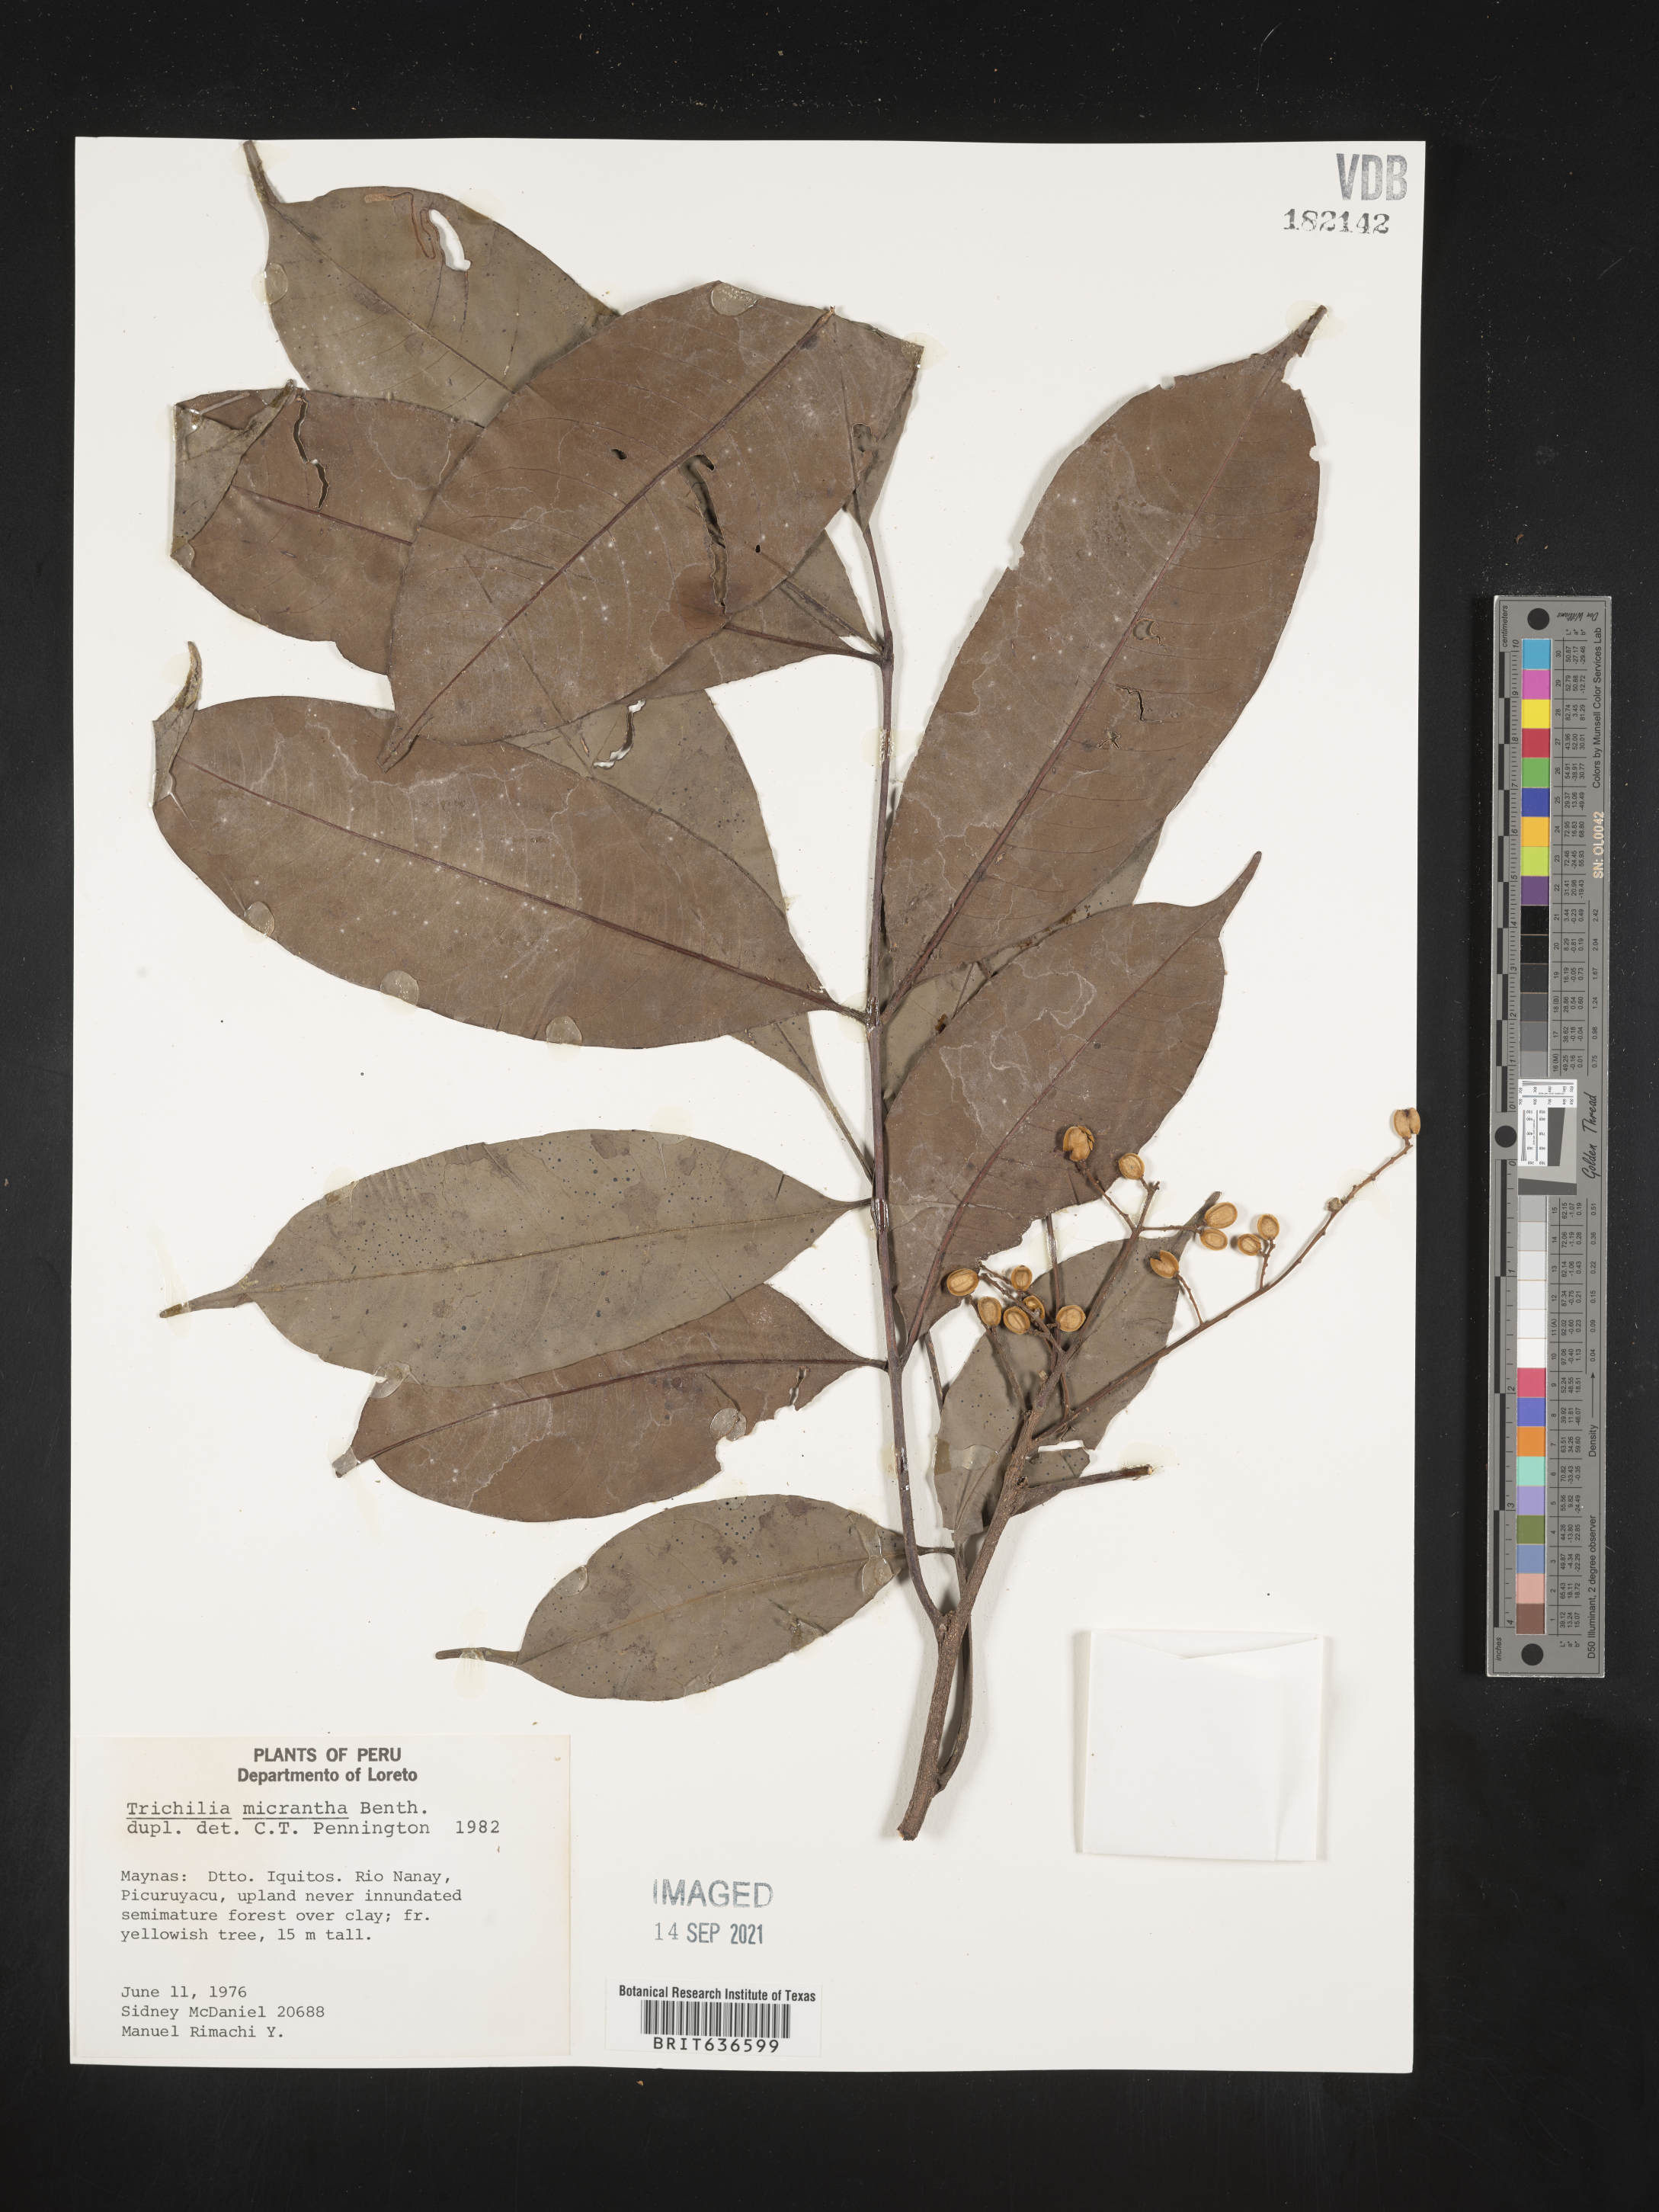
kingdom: Plantae
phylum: Tracheophyta
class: Magnoliopsida
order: Sapindales
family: Meliaceae
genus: Trichilia
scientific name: Trichilia
